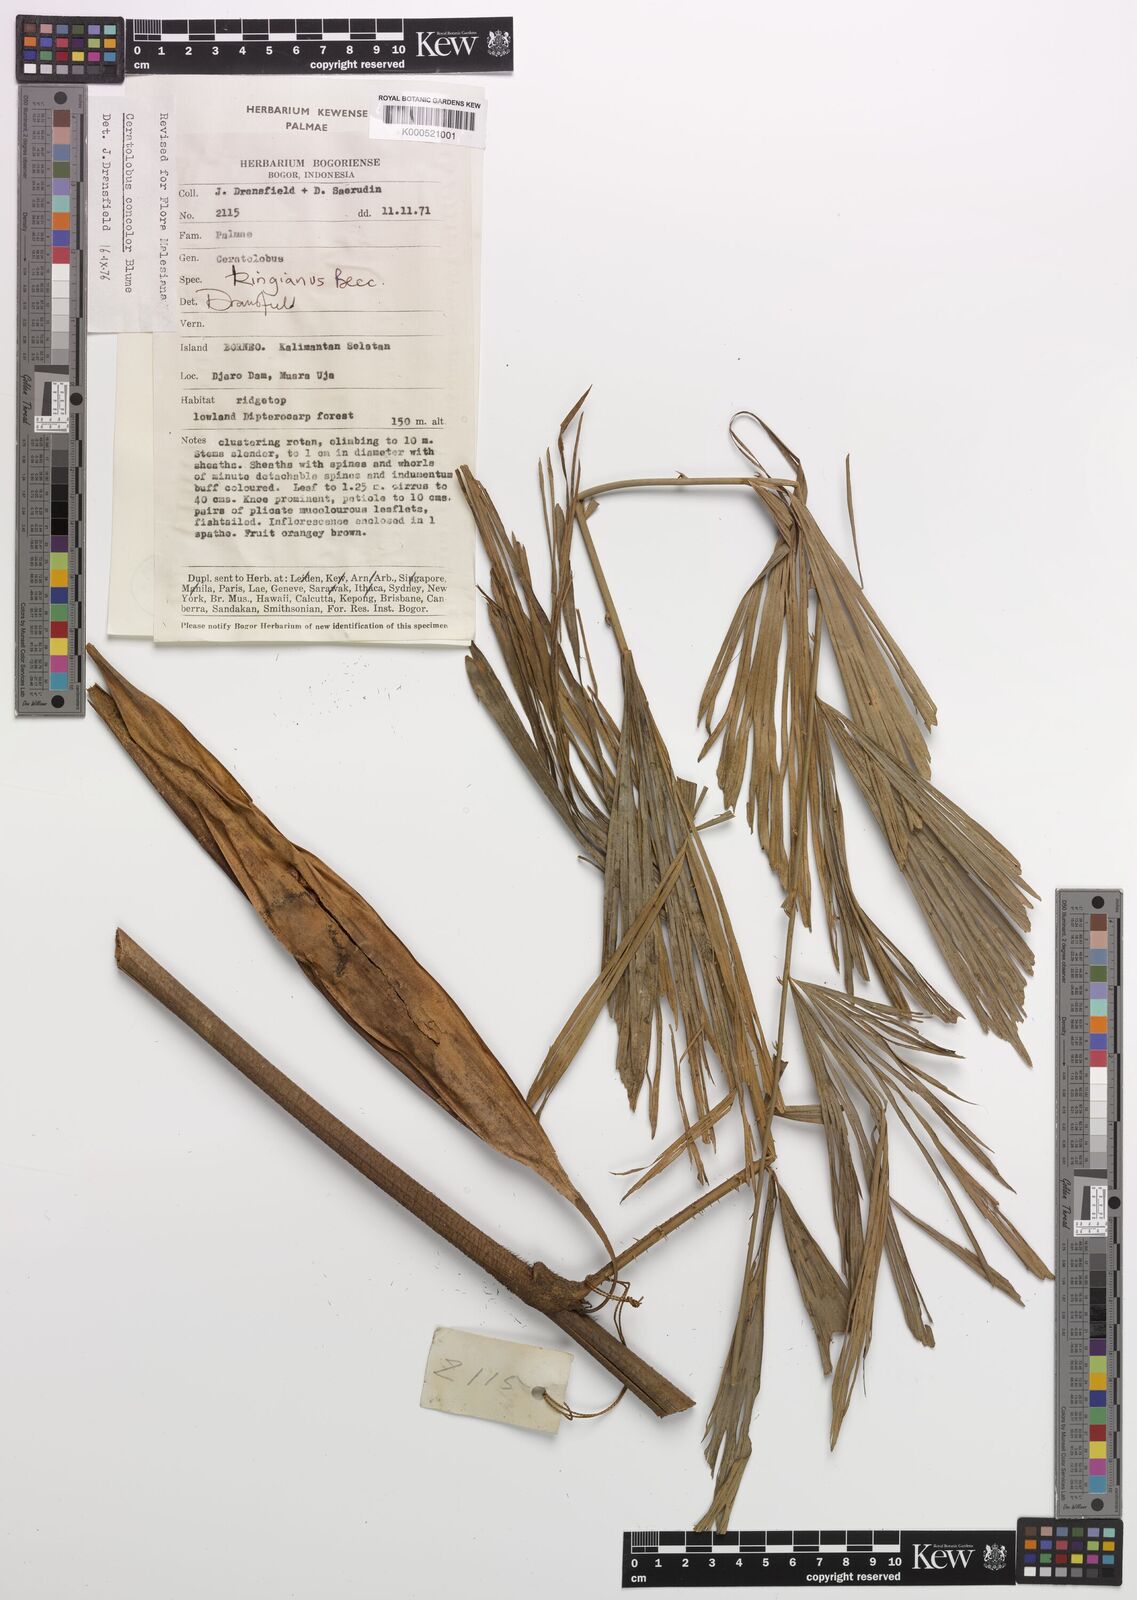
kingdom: Plantae
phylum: Tracheophyta
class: Liliopsida
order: Arecales
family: Arecaceae
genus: Calamus
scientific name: Calamus concolor
